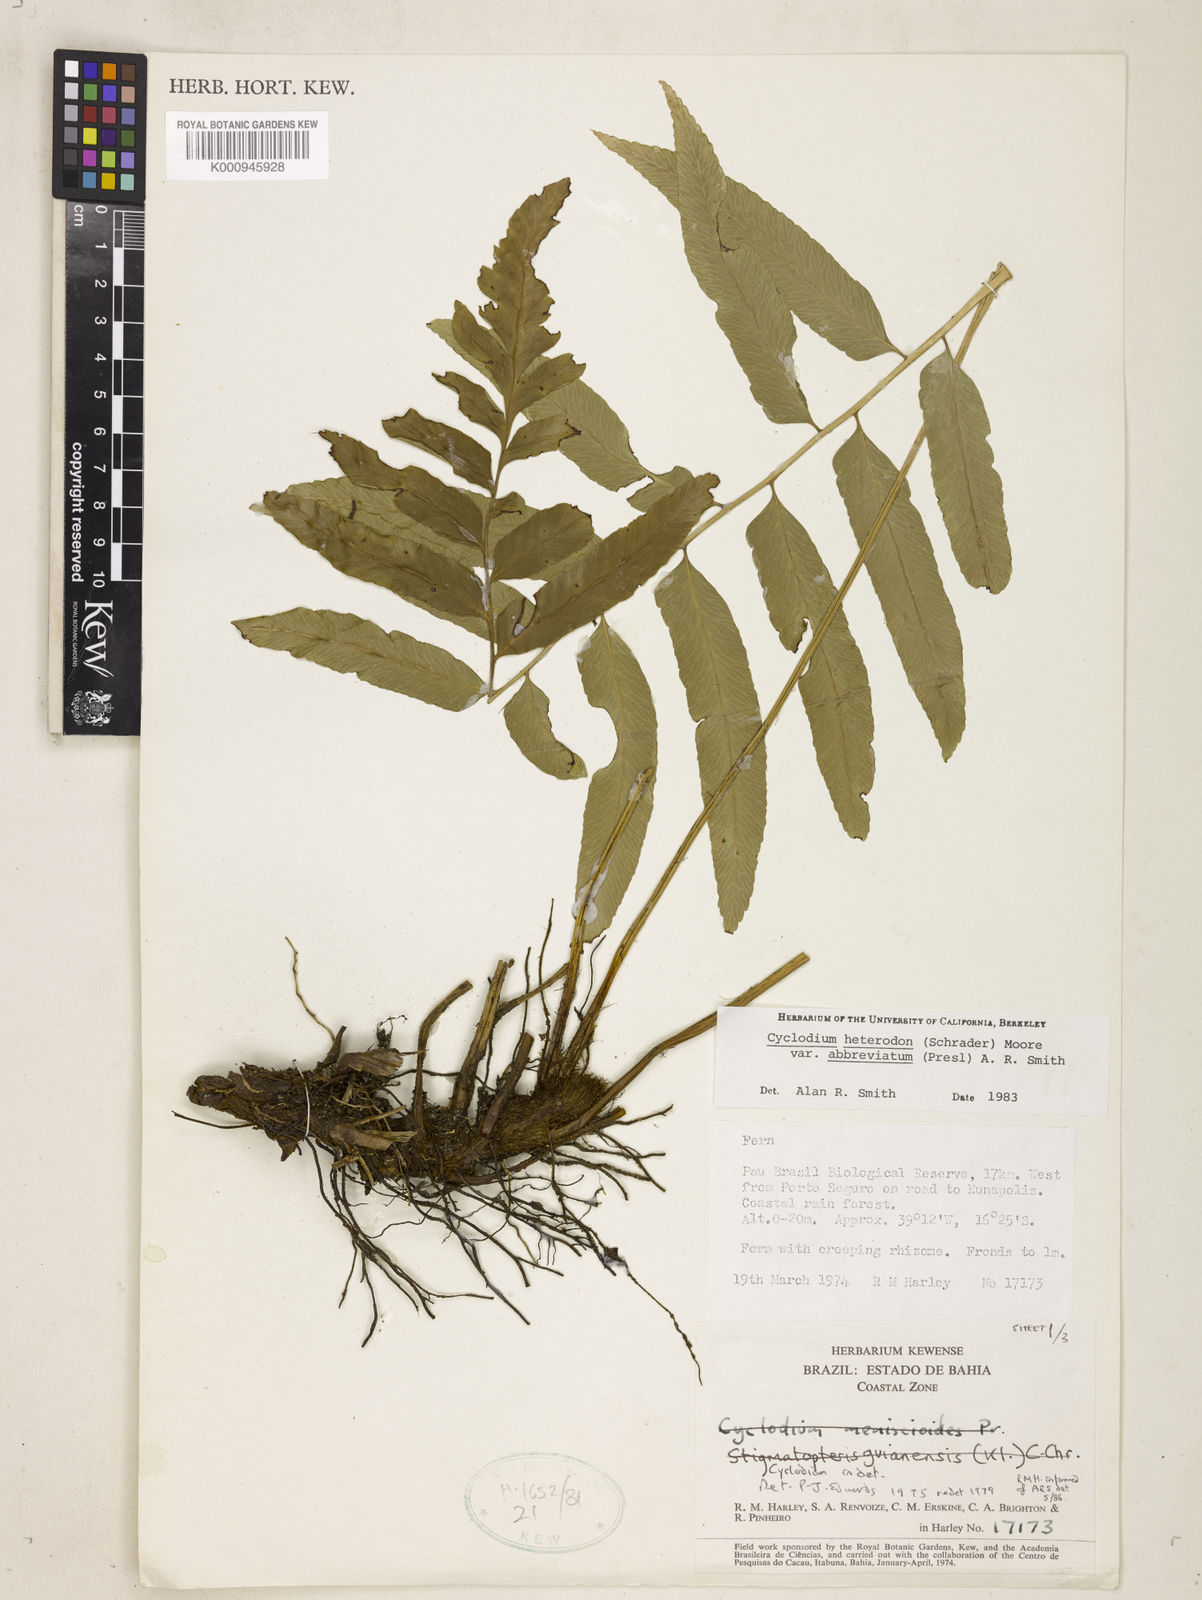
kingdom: Plantae
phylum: Tracheophyta
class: Polypodiopsida
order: Polypodiales
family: Dryopteridaceae
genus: Cyclodium
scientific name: Cyclodium heterodon
